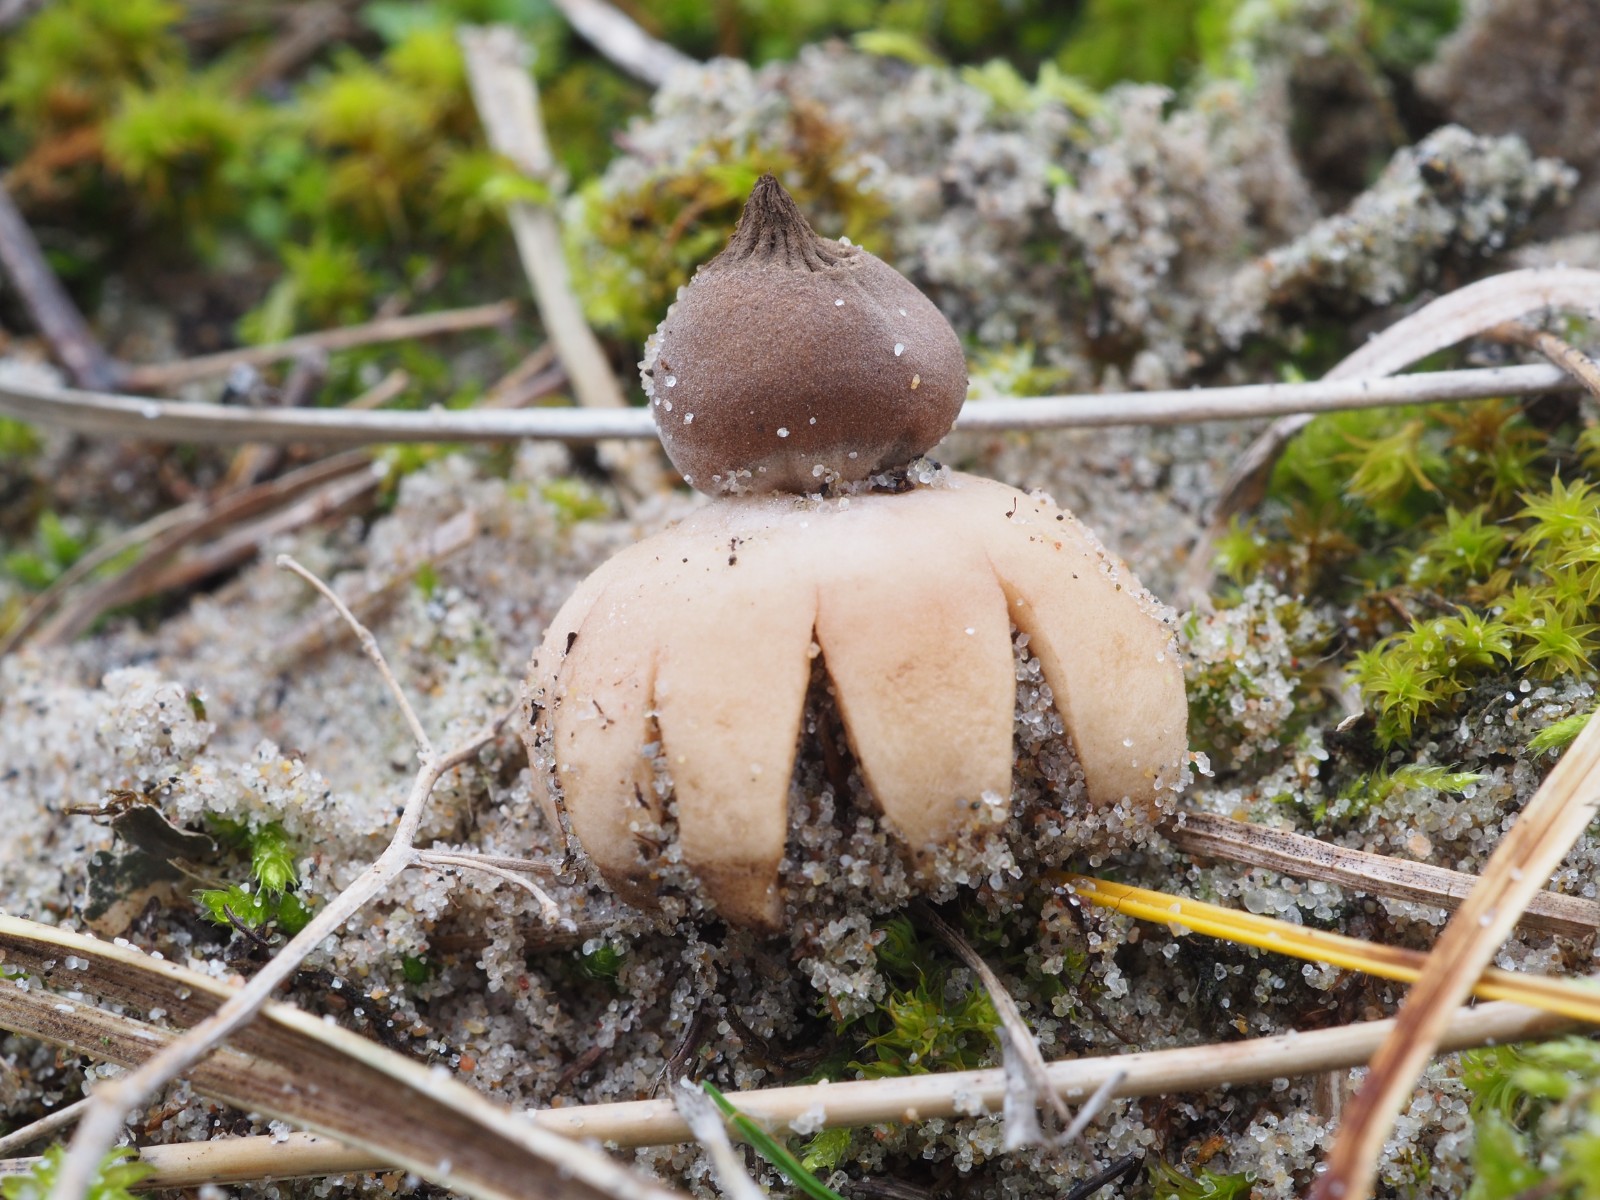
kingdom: Fungi
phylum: Basidiomycota
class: Agaricomycetes
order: Geastrales
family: Geastraceae
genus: Geastrum
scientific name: Geastrum striatum
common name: dværg-stjernebold
